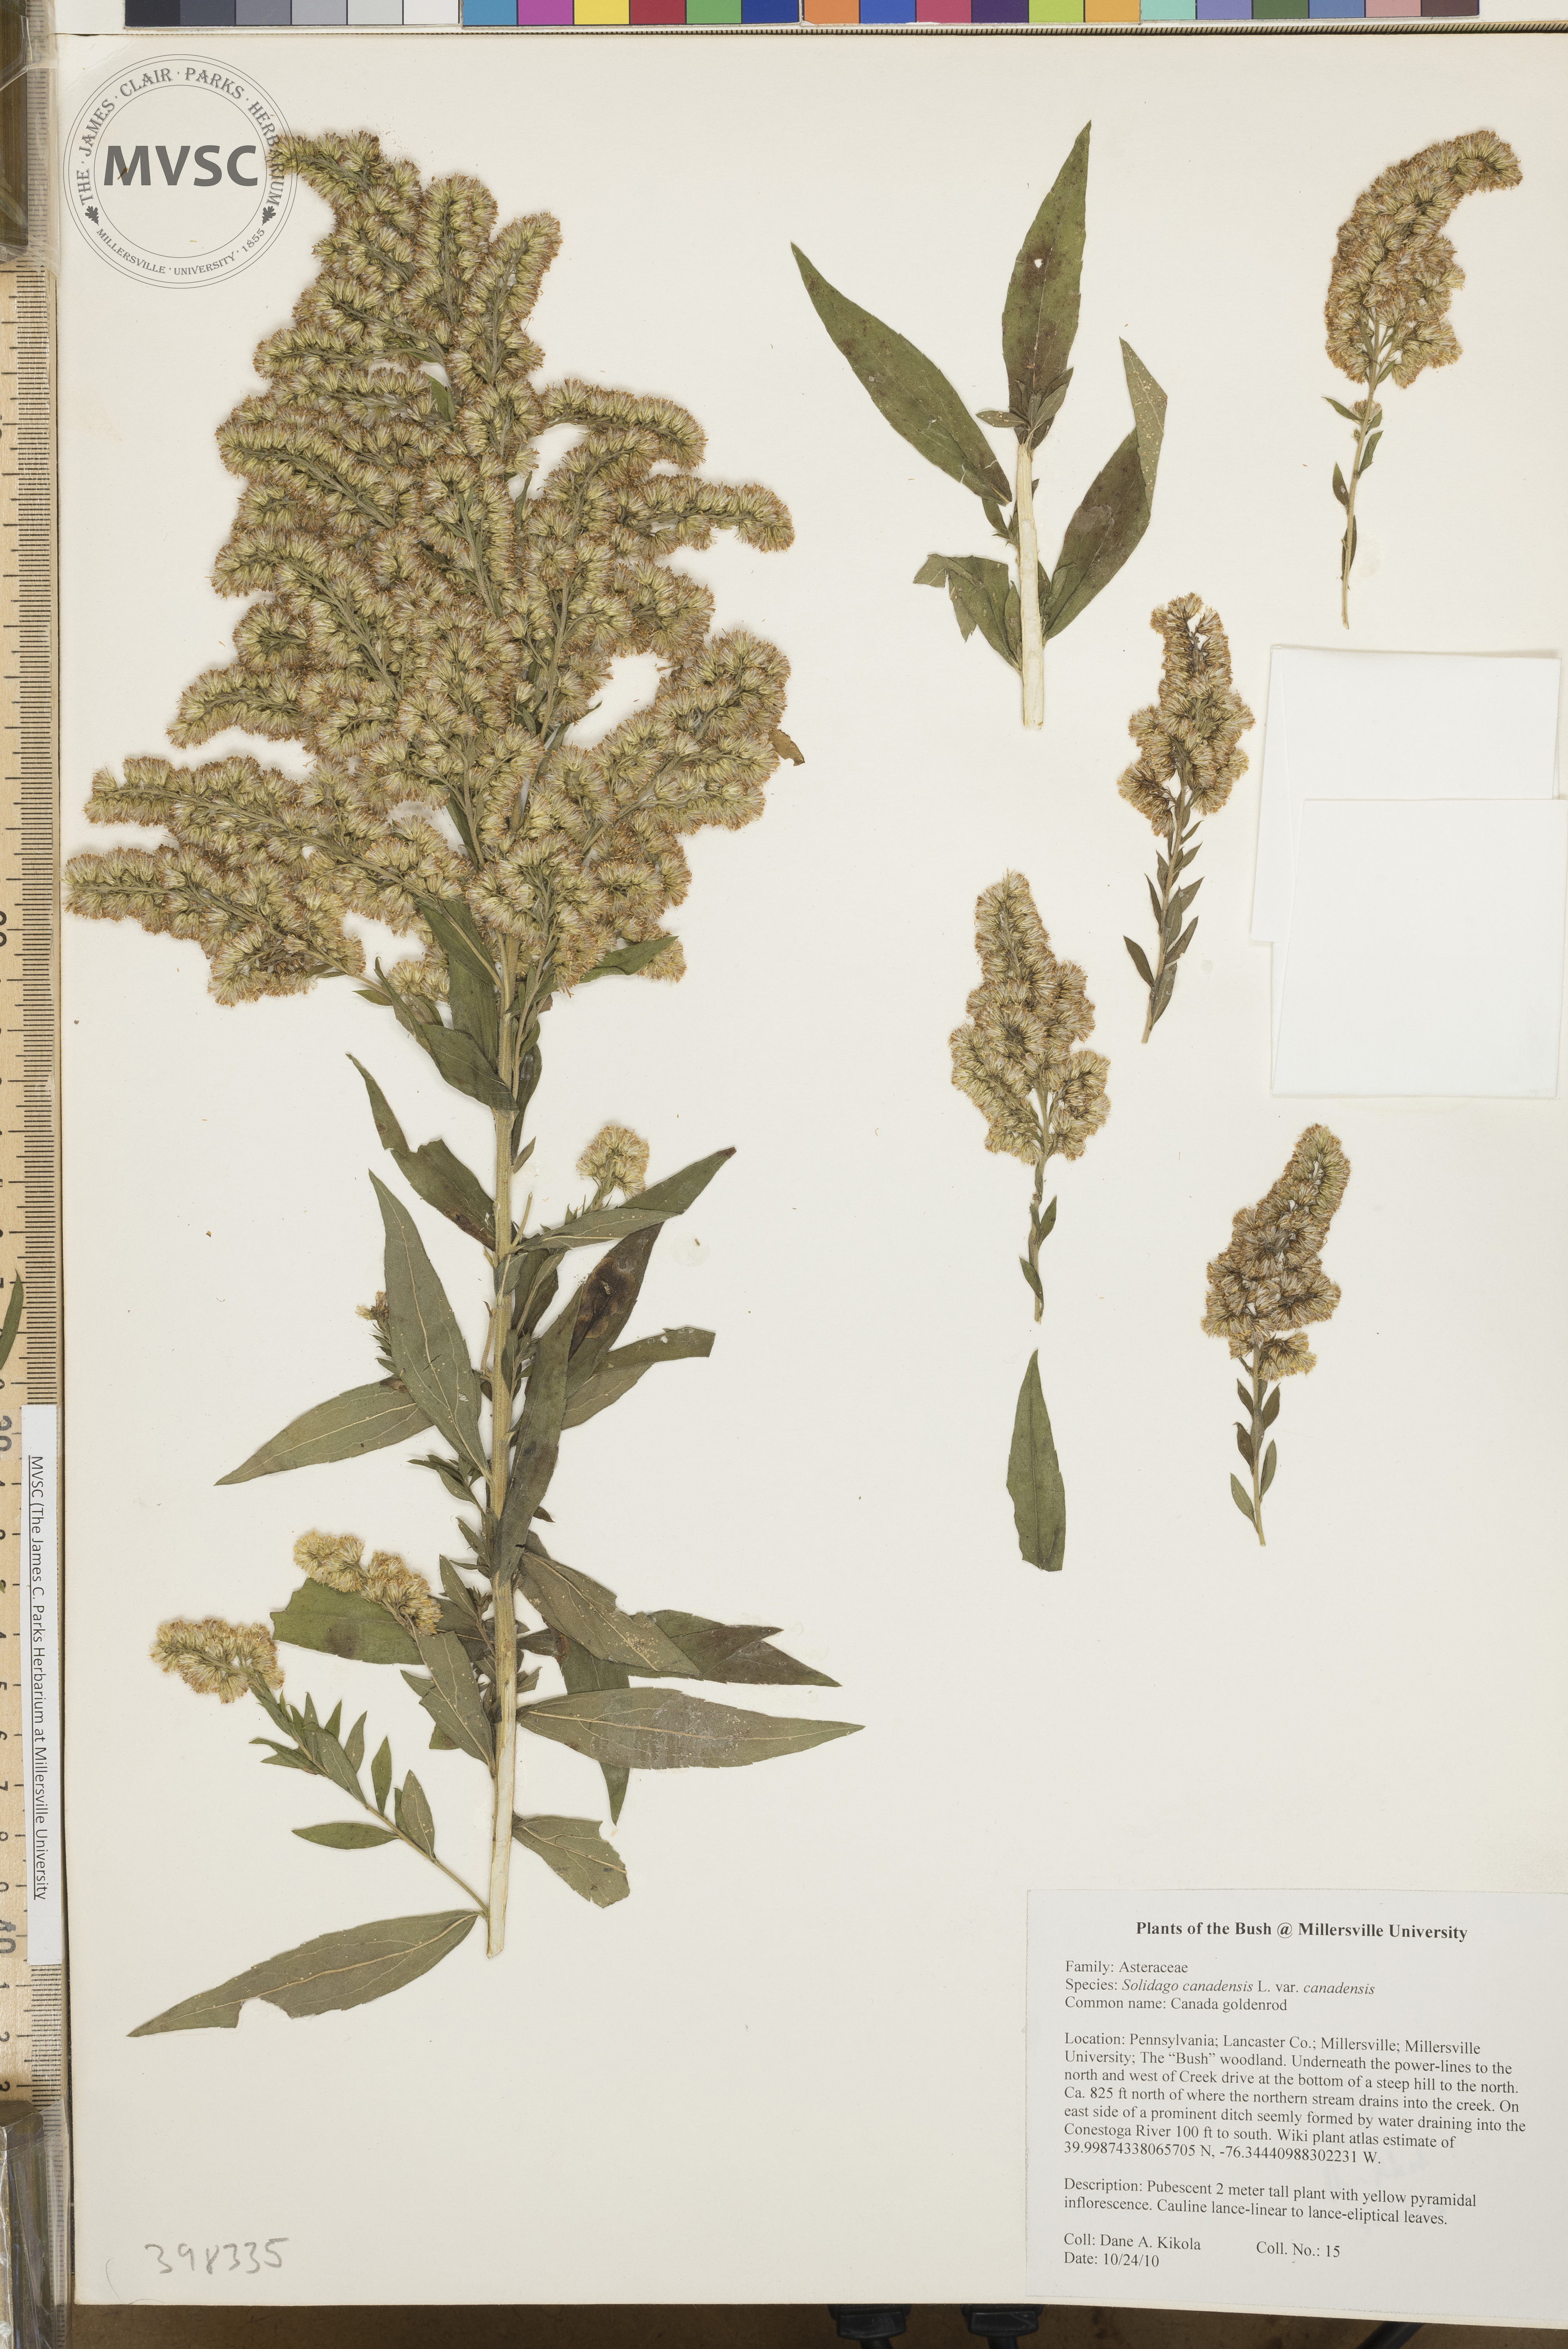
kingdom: Plantae
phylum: Tracheophyta
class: Magnoliopsida
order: Asterales
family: Asteraceae
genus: Solidago
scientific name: Solidago altissima
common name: Late goldenrod
